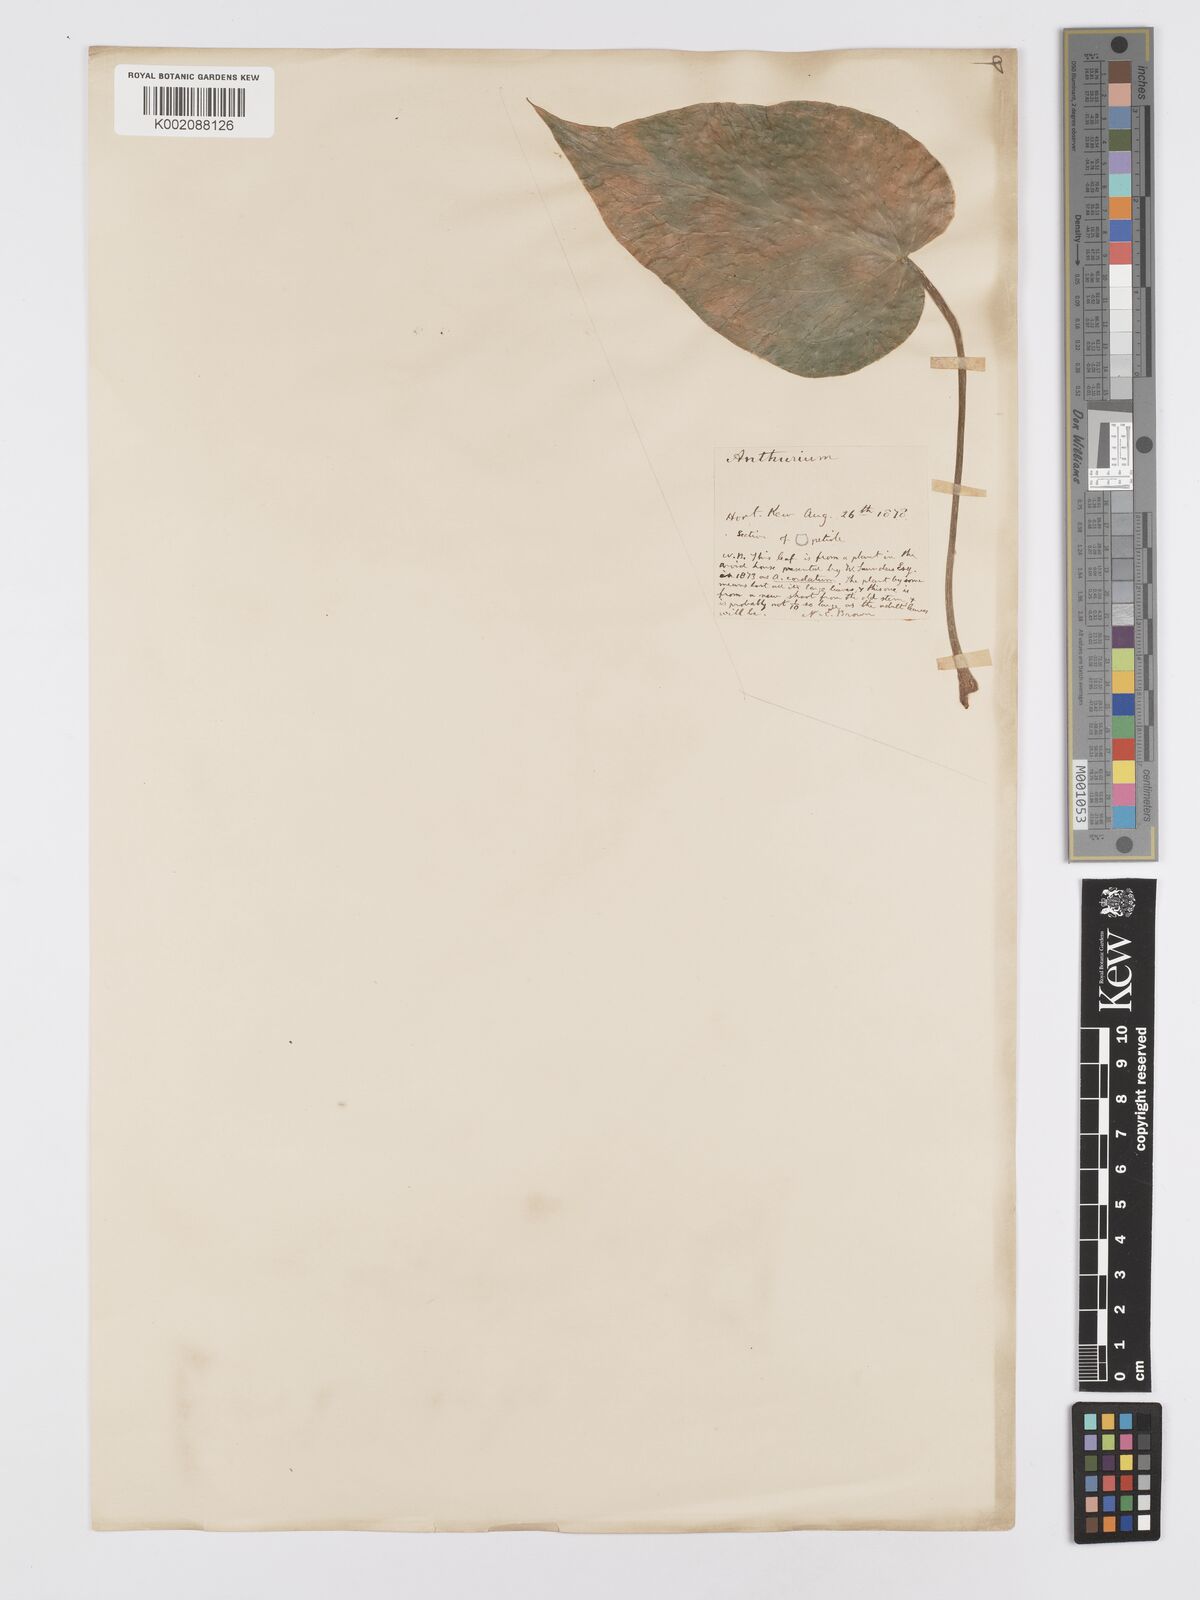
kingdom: Plantae
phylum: Tracheophyta
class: Liliopsida
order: Alismatales
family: Araceae
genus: Anthurium
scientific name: Anthurium
